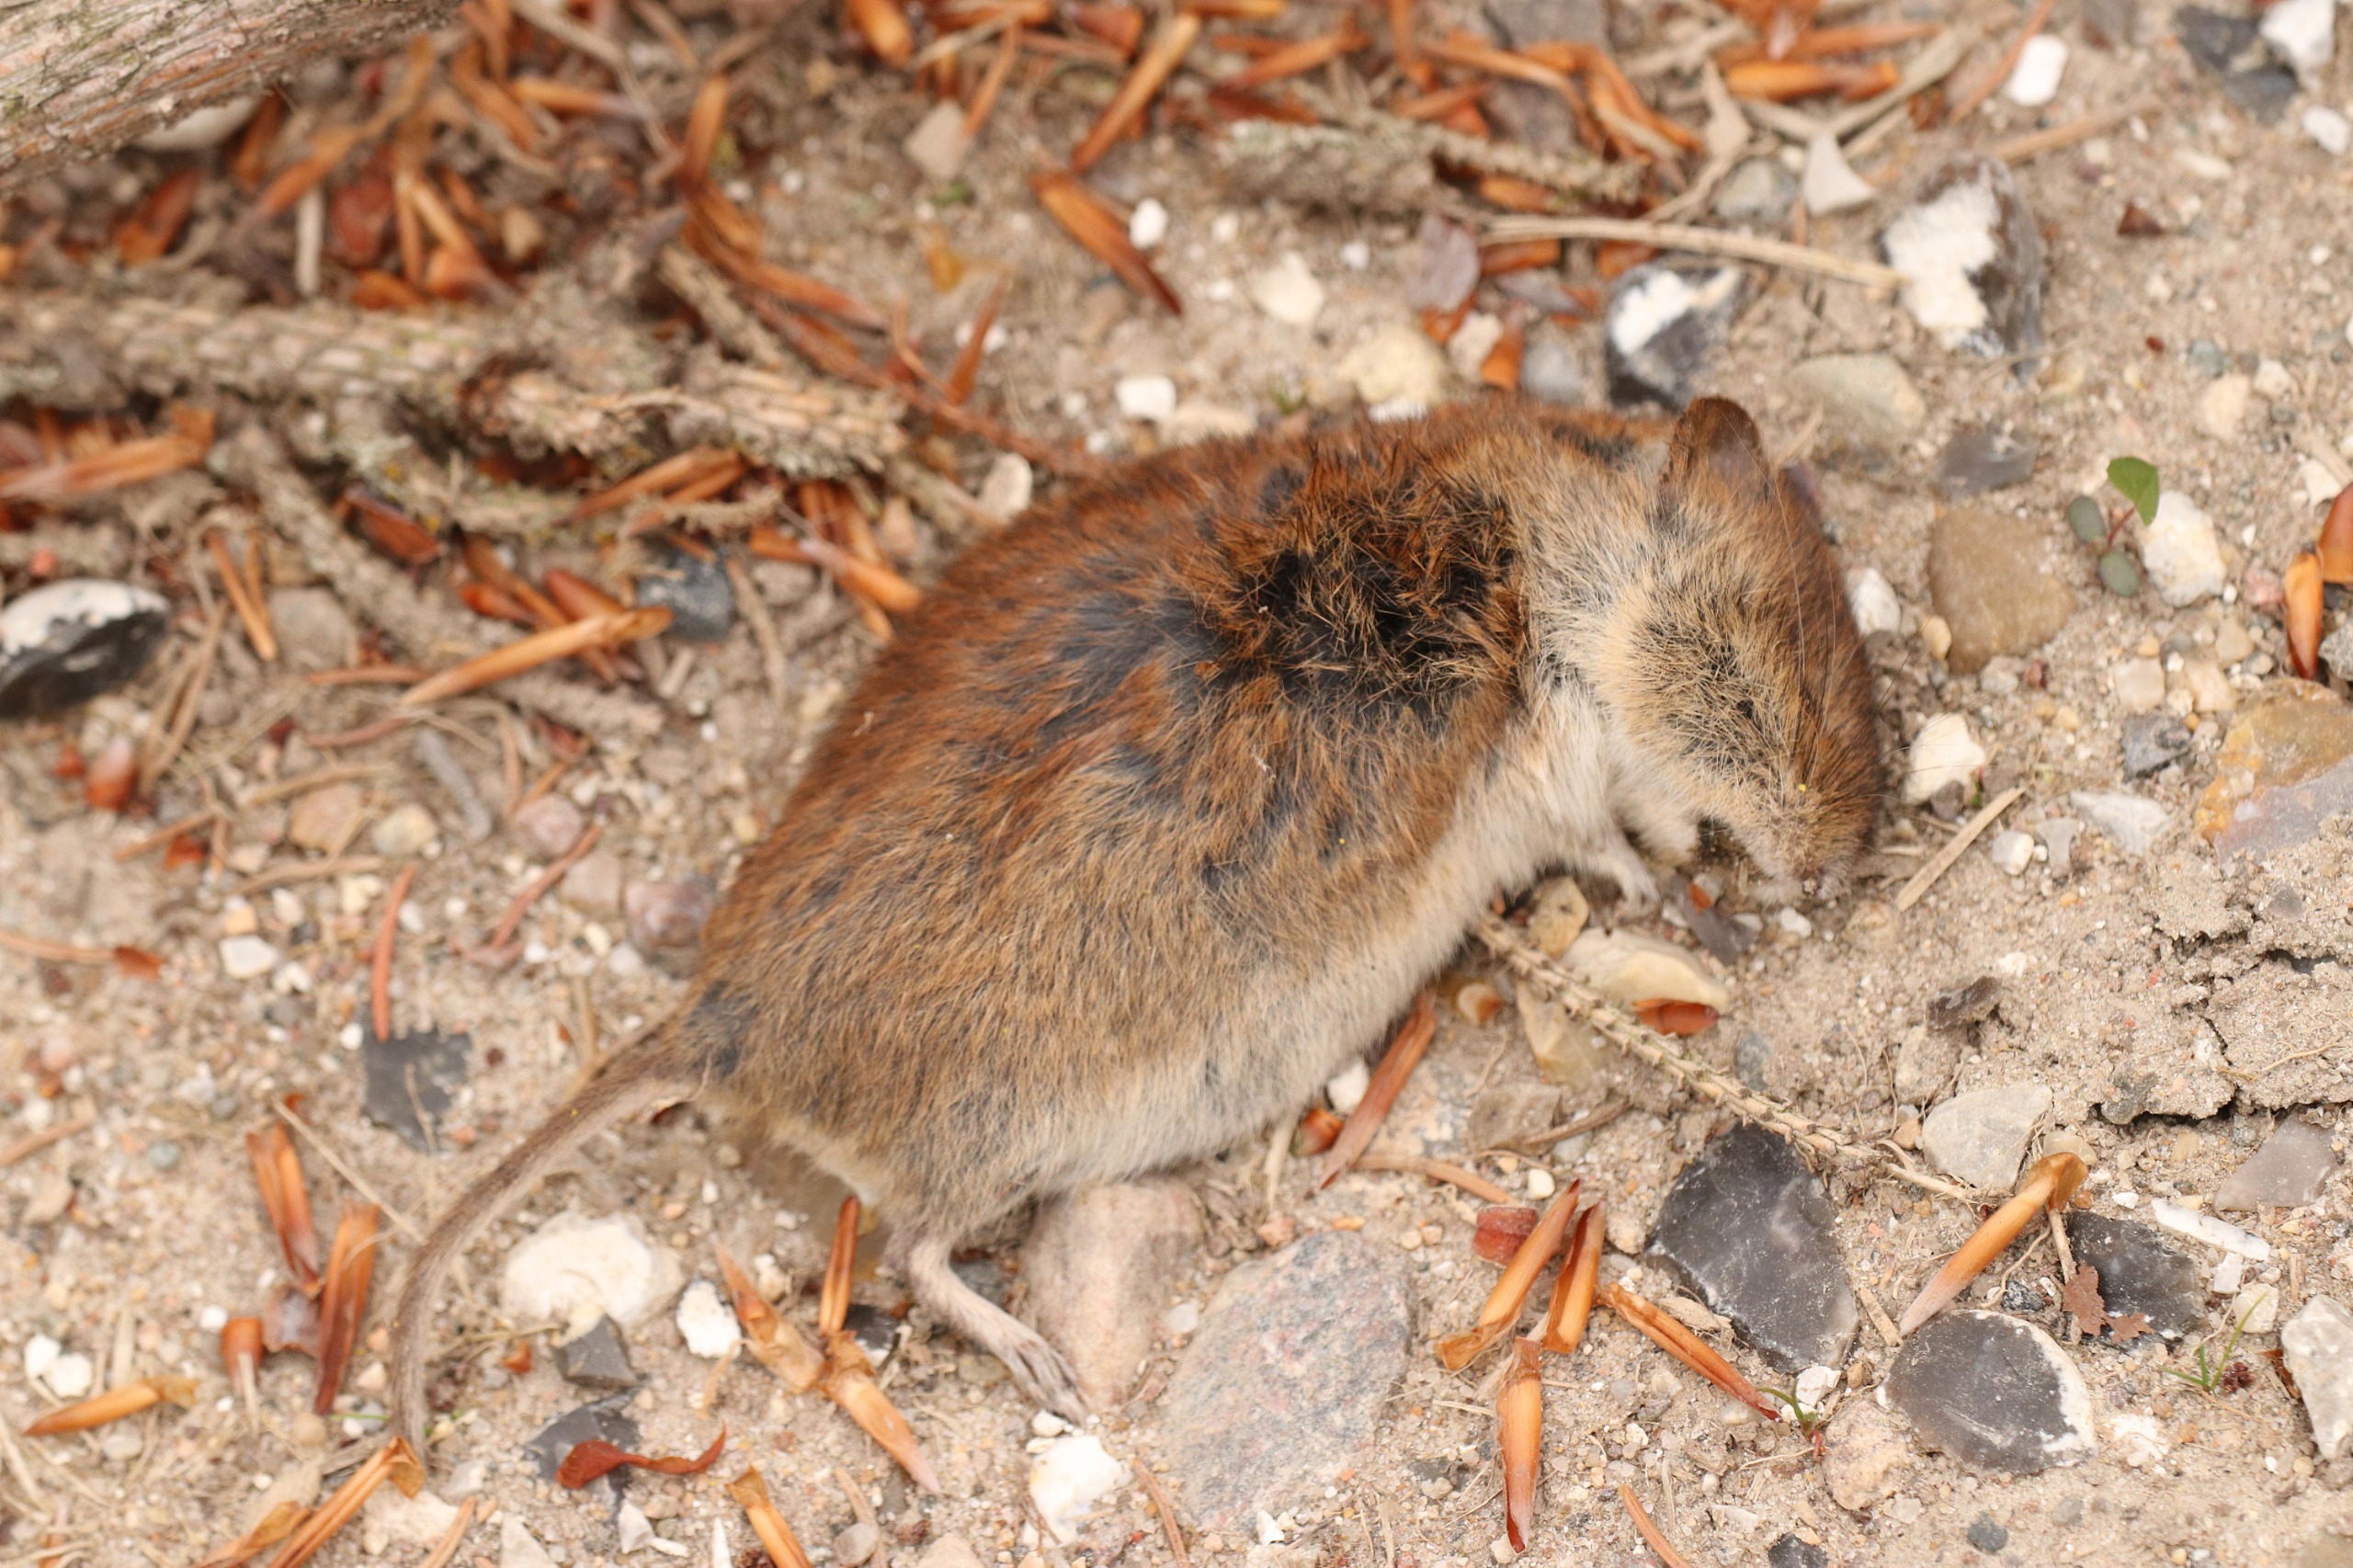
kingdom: Animalia
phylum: Chordata
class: Mammalia
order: Rodentia
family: Cricetidae
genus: Myodes
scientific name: Myodes glareolus
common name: Rødmus
